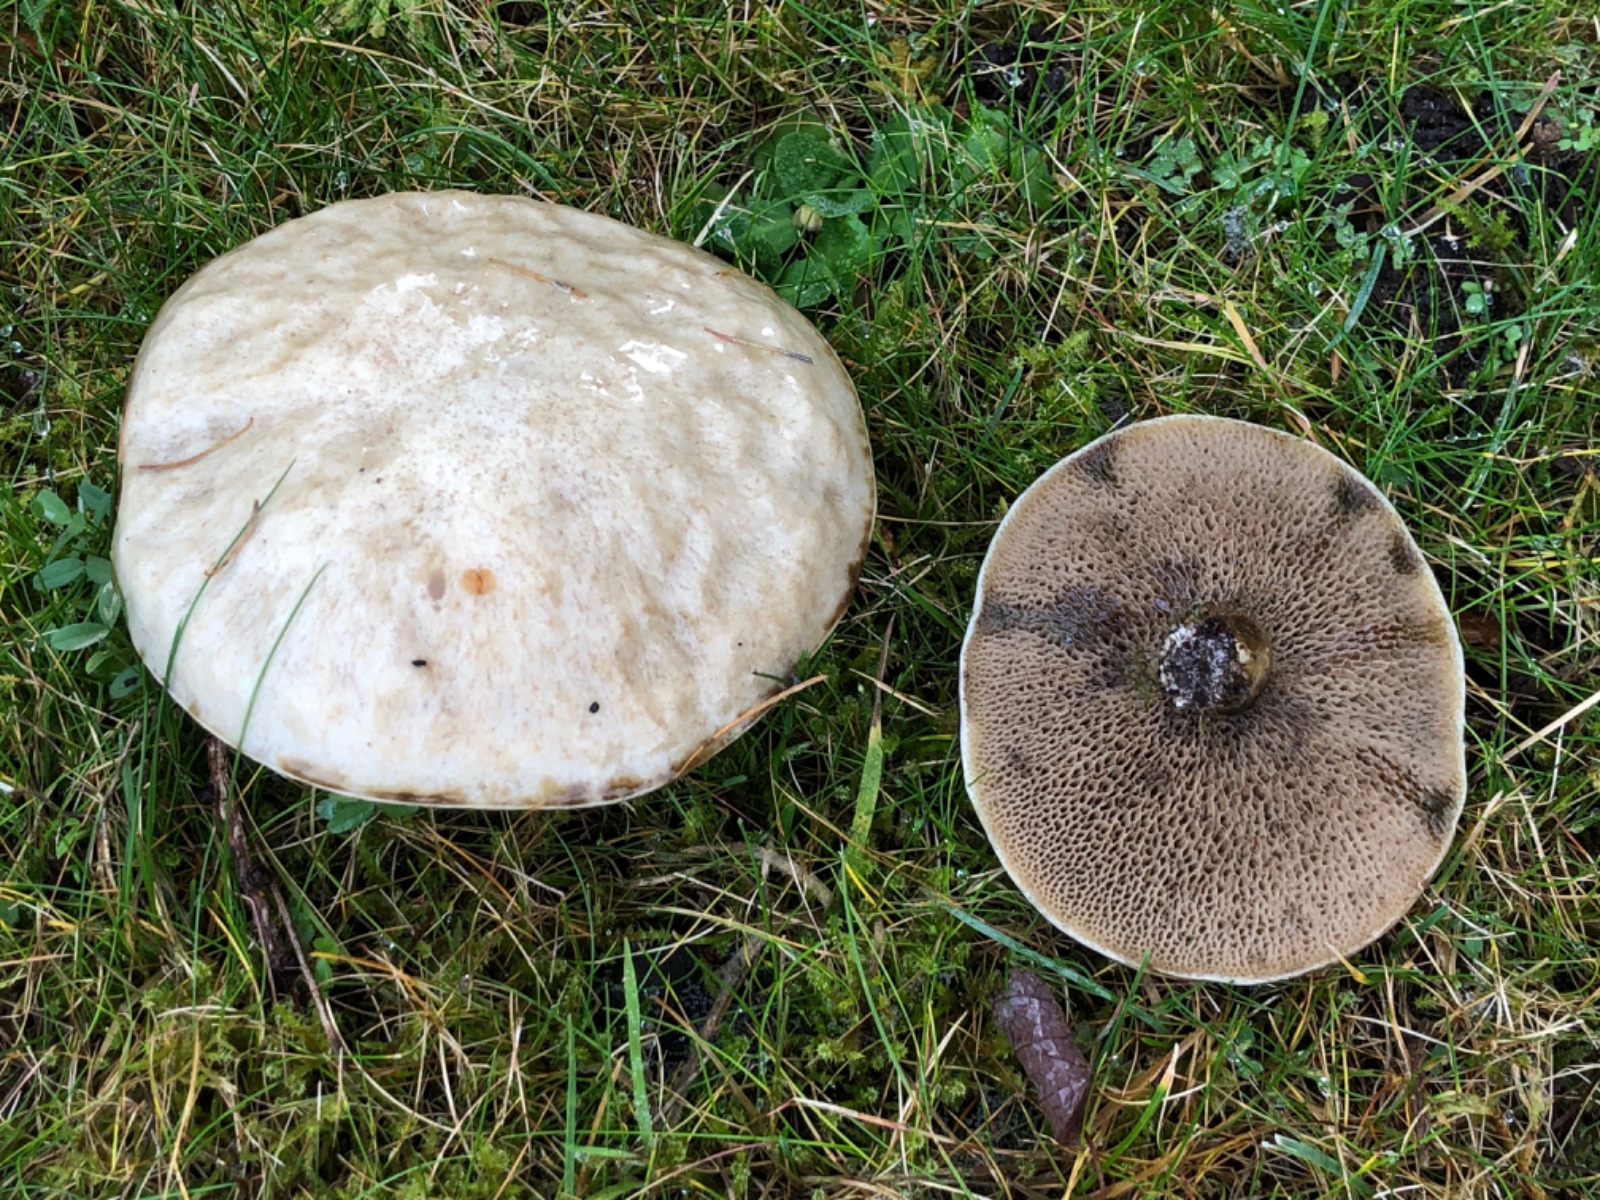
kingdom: Fungi
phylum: Basidiomycota
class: Agaricomycetes
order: Boletales
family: Suillaceae
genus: Suillus
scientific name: Suillus viscidus
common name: olivengrå slimrørhat
